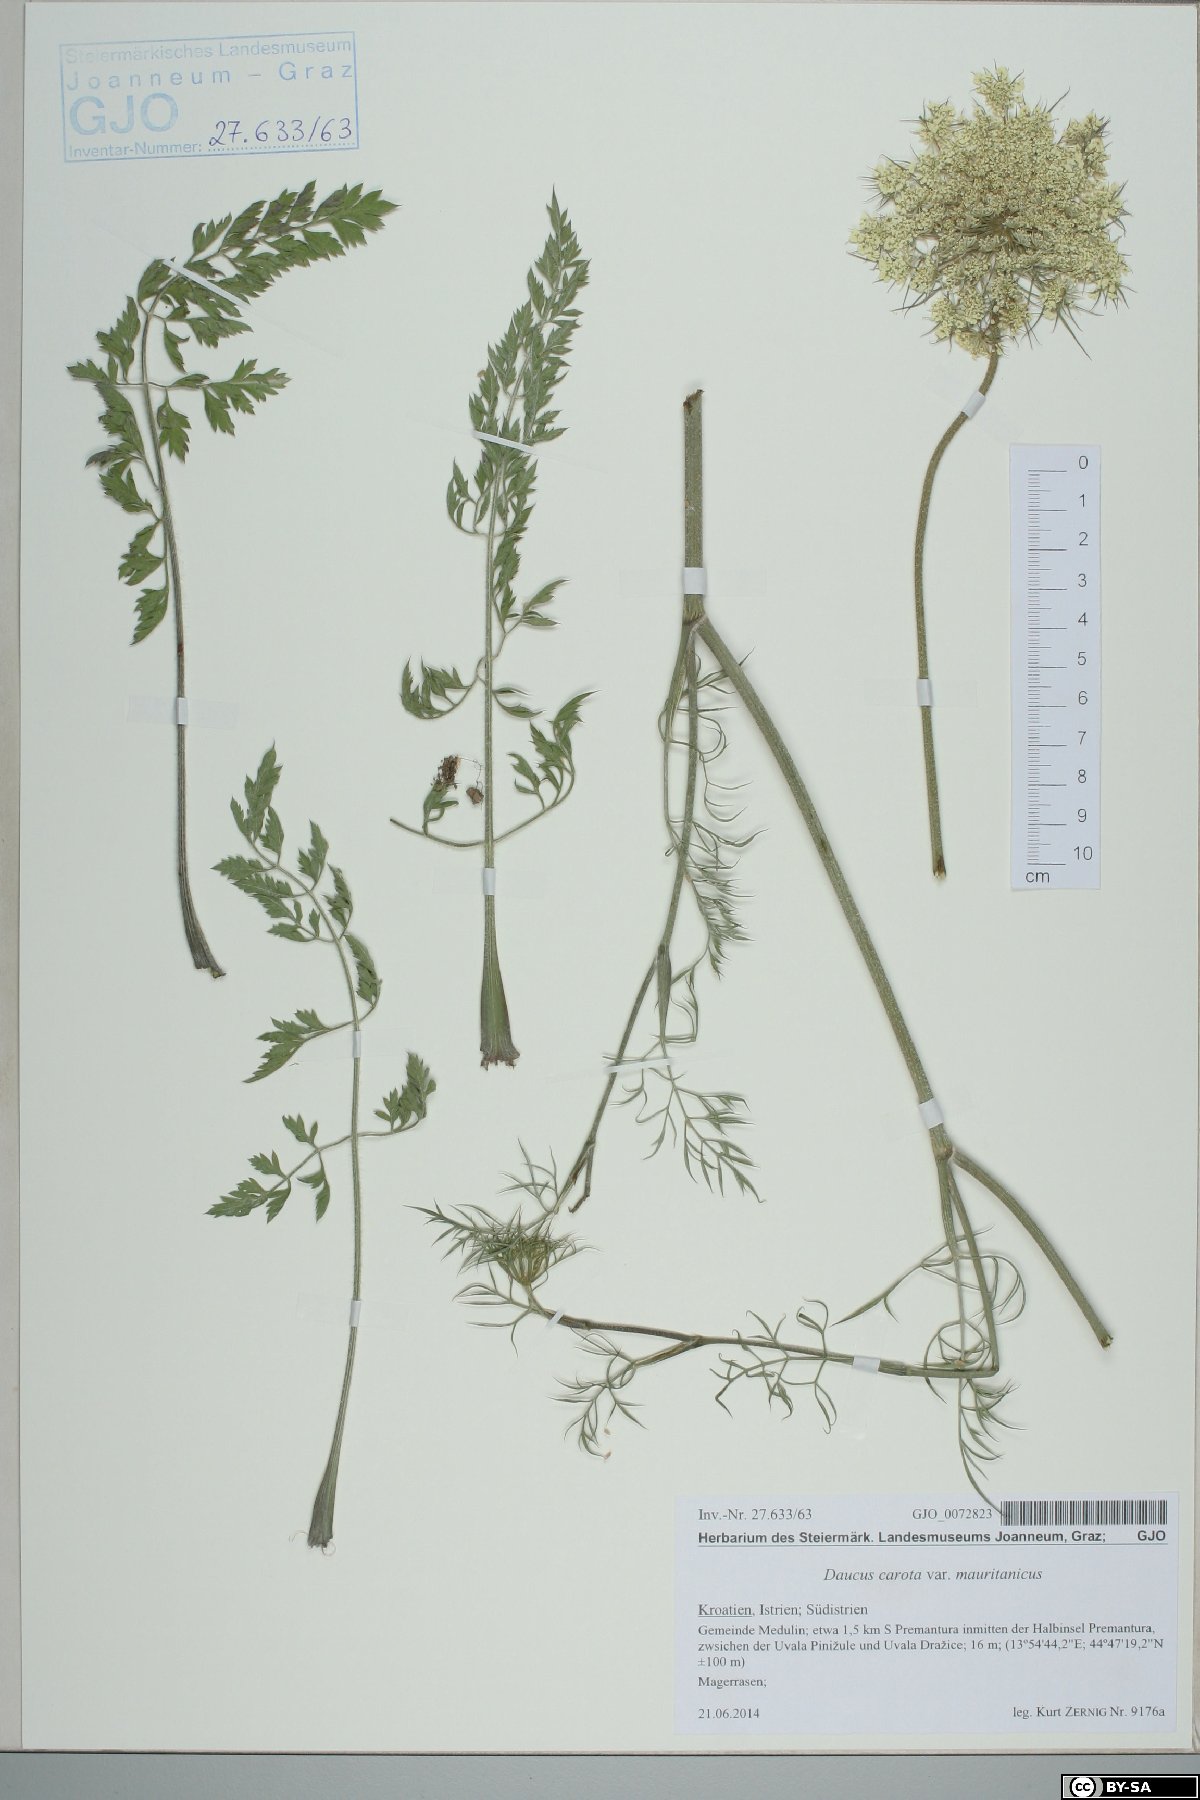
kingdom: Plantae
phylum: Tracheophyta
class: Magnoliopsida
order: Apiales
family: Apiaceae
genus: Daucus
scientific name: Daucus carota
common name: Wild carrot
